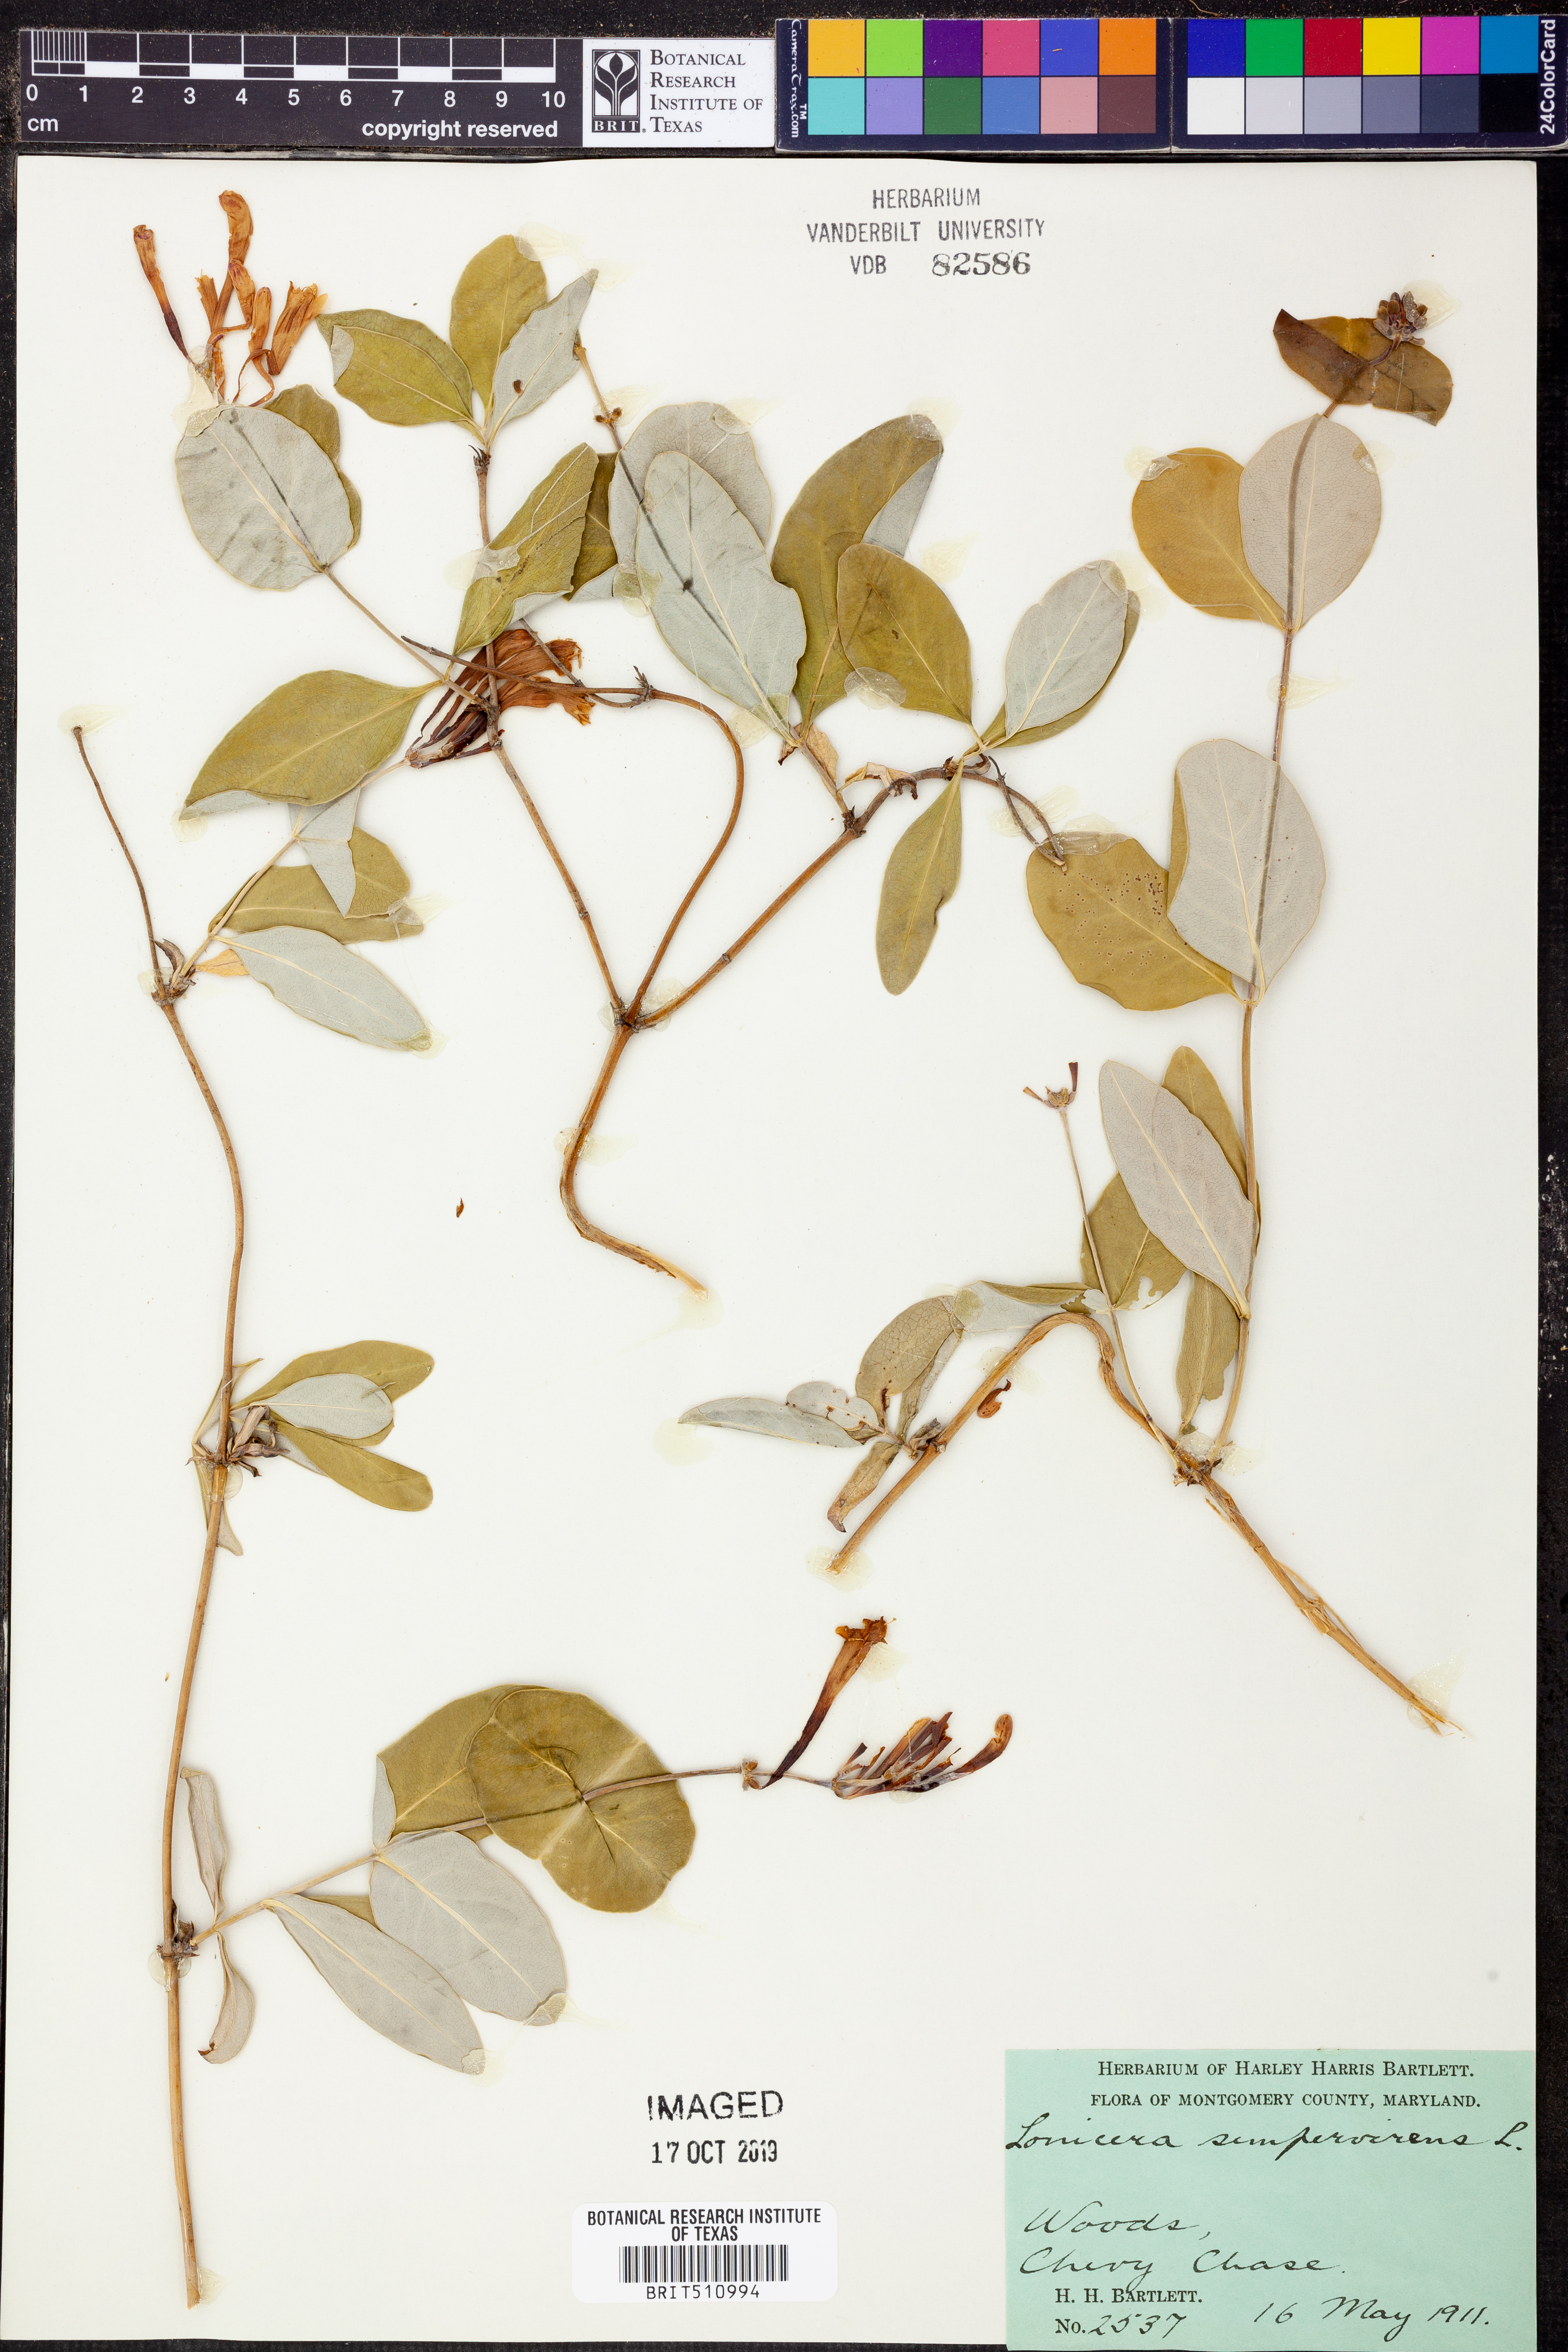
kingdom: Plantae
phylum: Tracheophyta
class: Magnoliopsida
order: Dipsacales
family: Caprifoliaceae
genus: Lonicera
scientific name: Lonicera sempervirens
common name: Coral honeysuckle
